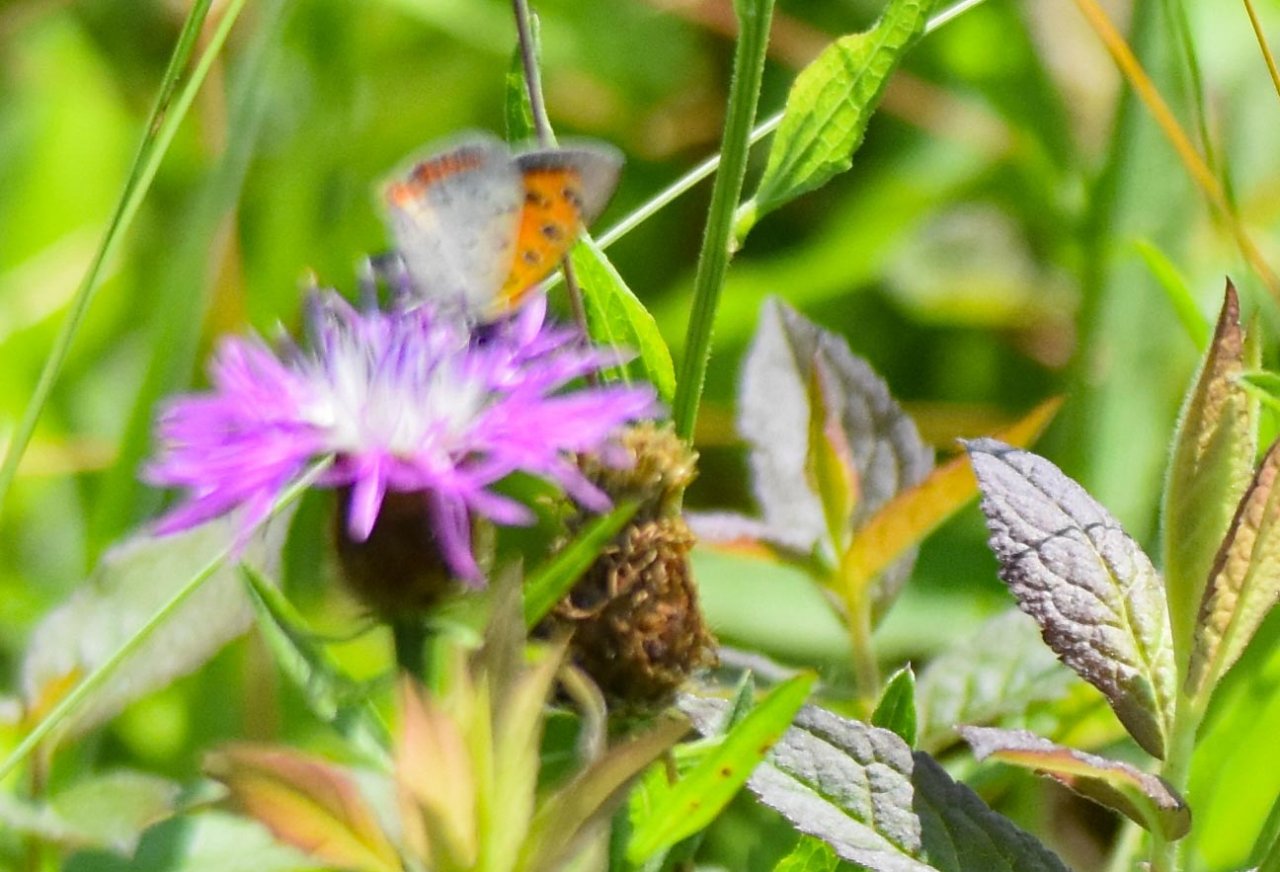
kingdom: Animalia
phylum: Arthropoda
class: Insecta
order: Lepidoptera
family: Lycaenidae
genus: Lycaena
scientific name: Lycaena phlaeas
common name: American Copper
